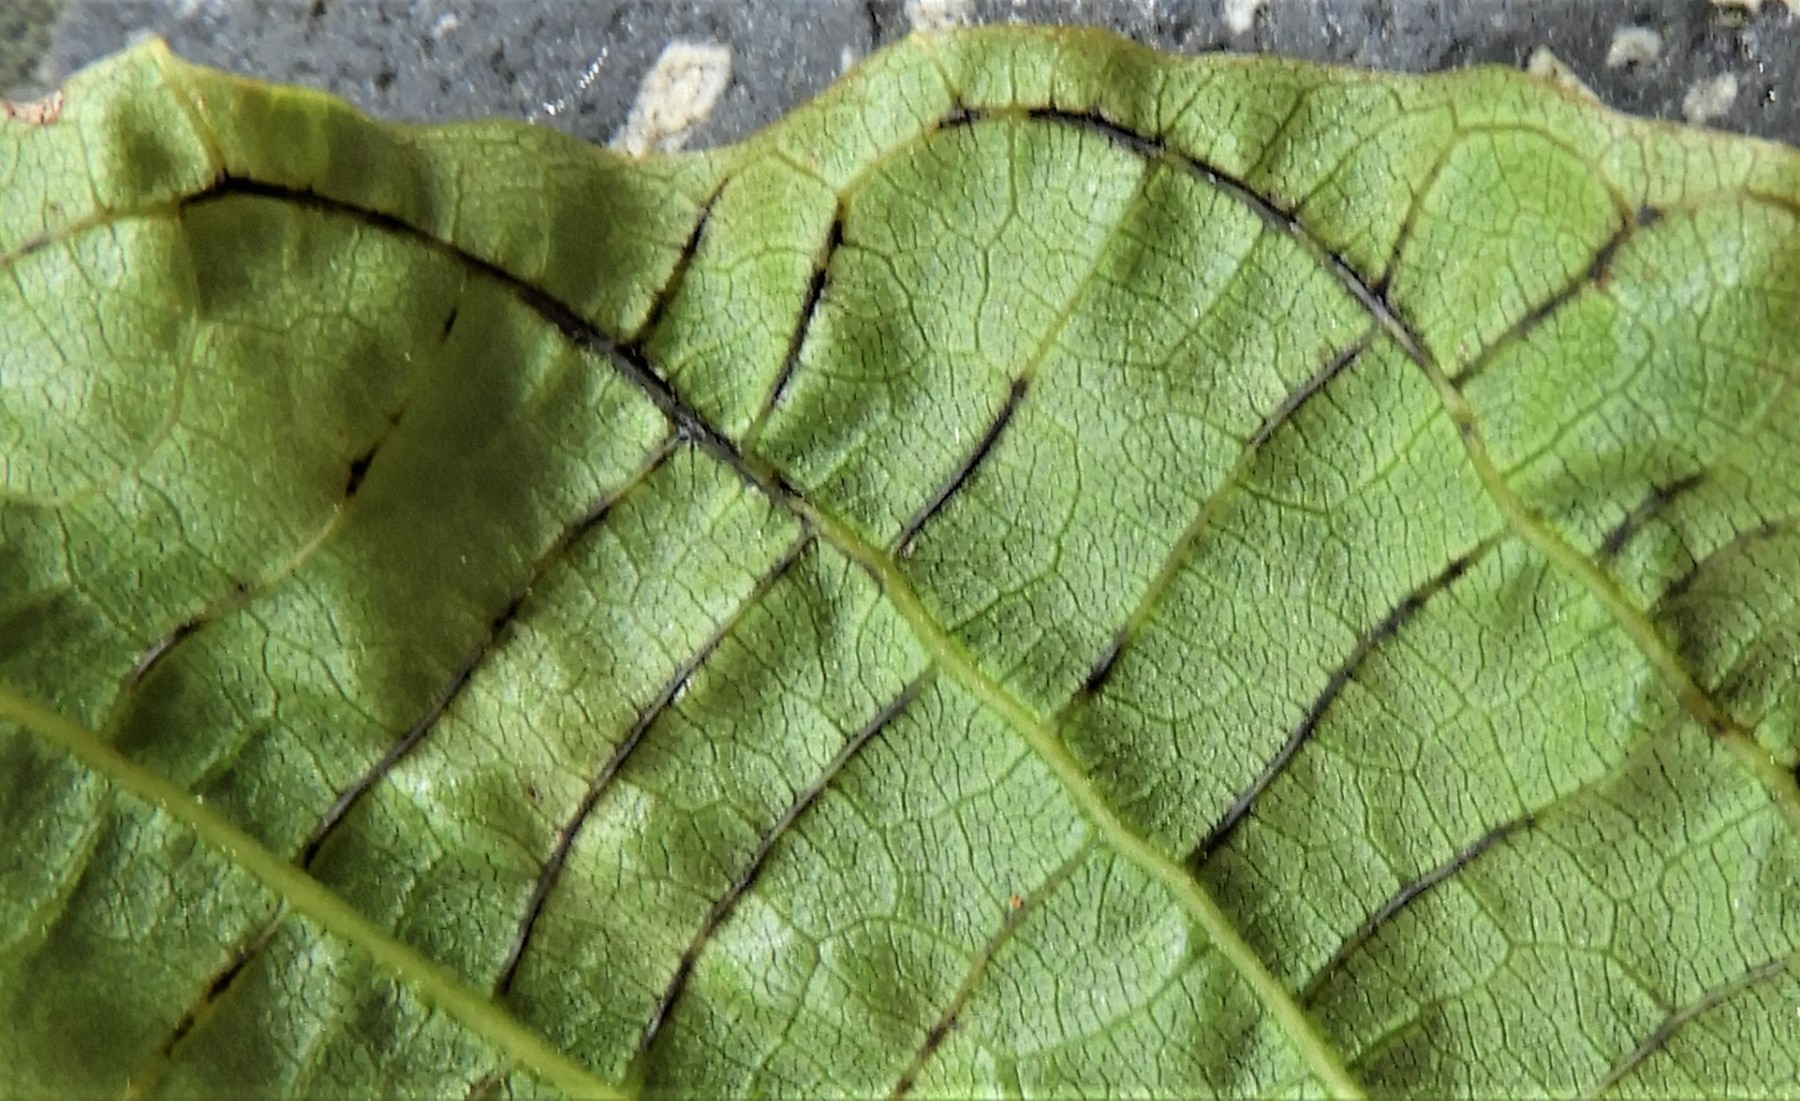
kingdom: Fungi
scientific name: Fungi
